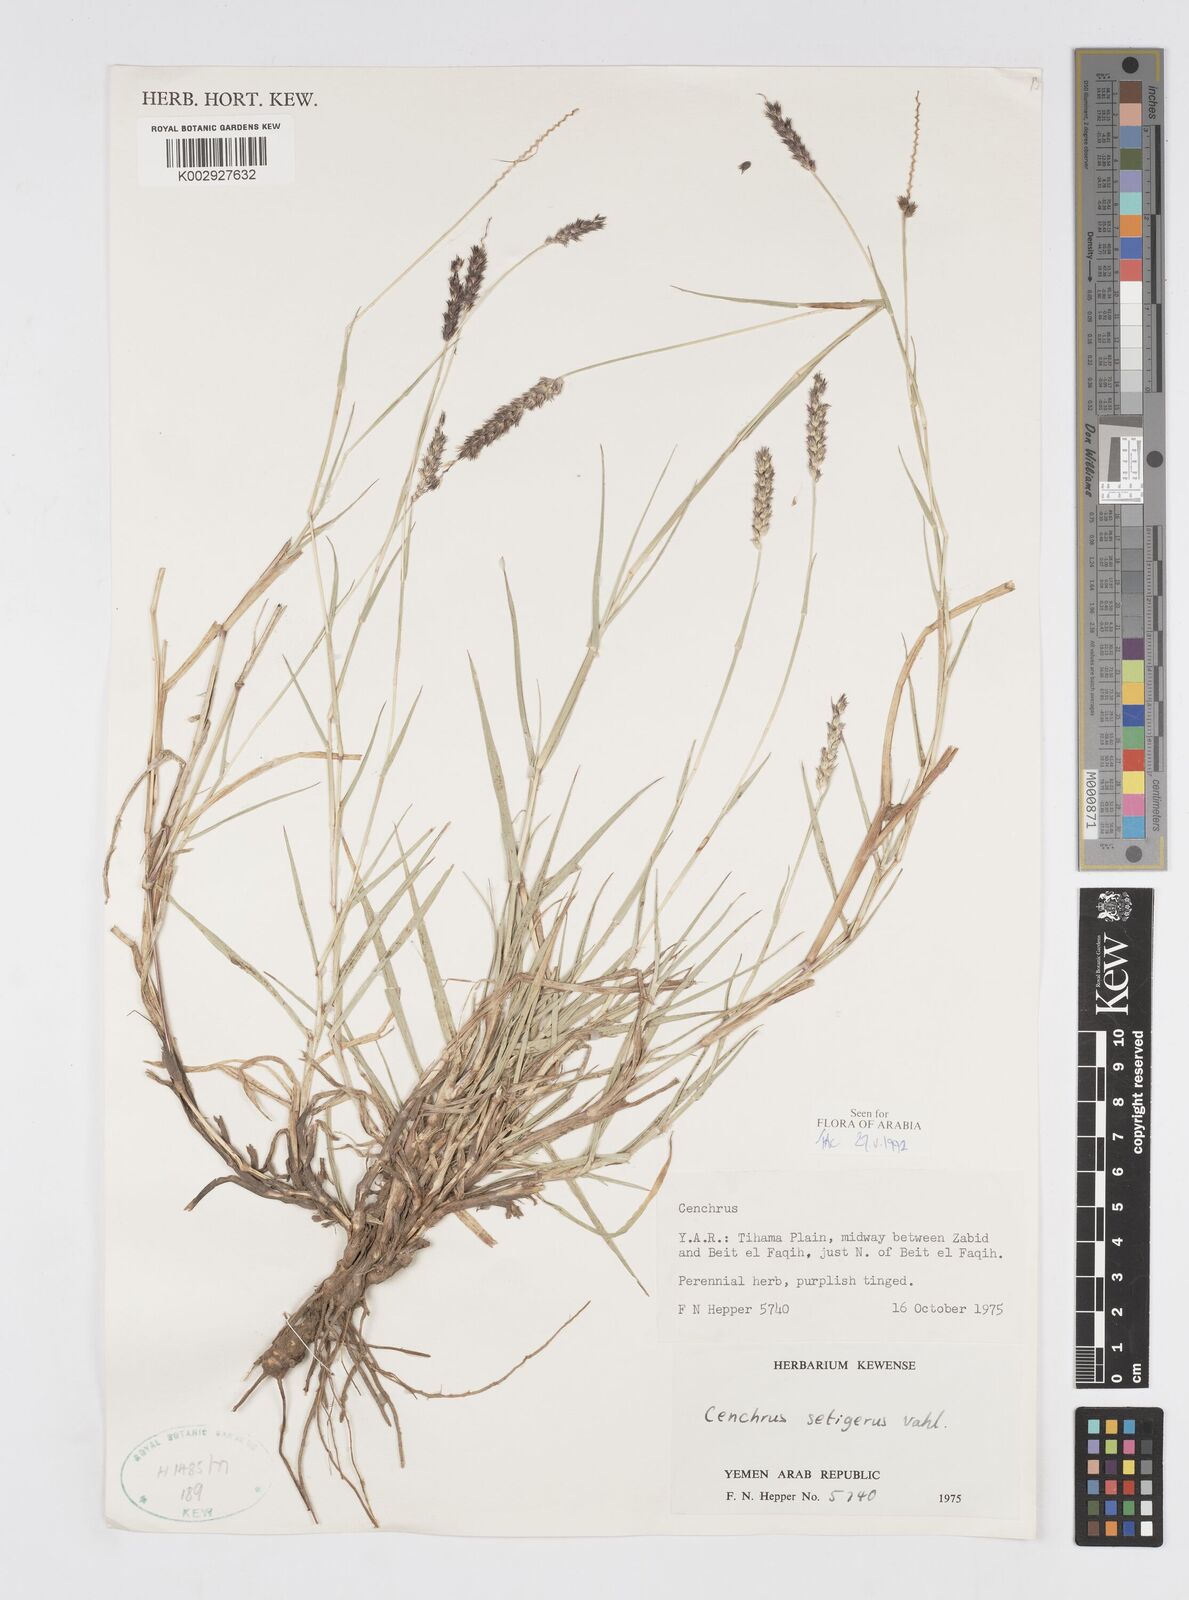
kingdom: Plantae
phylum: Tracheophyta
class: Liliopsida
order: Poales
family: Poaceae
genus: Cenchrus
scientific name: Cenchrus setigerus
